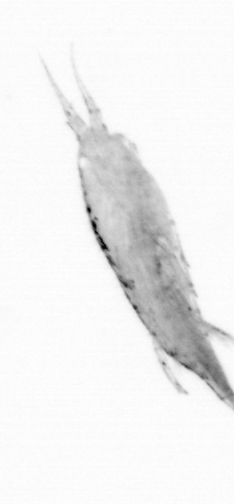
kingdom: Animalia
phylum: Arthropoda
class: Copepoda
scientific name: Copepoda
